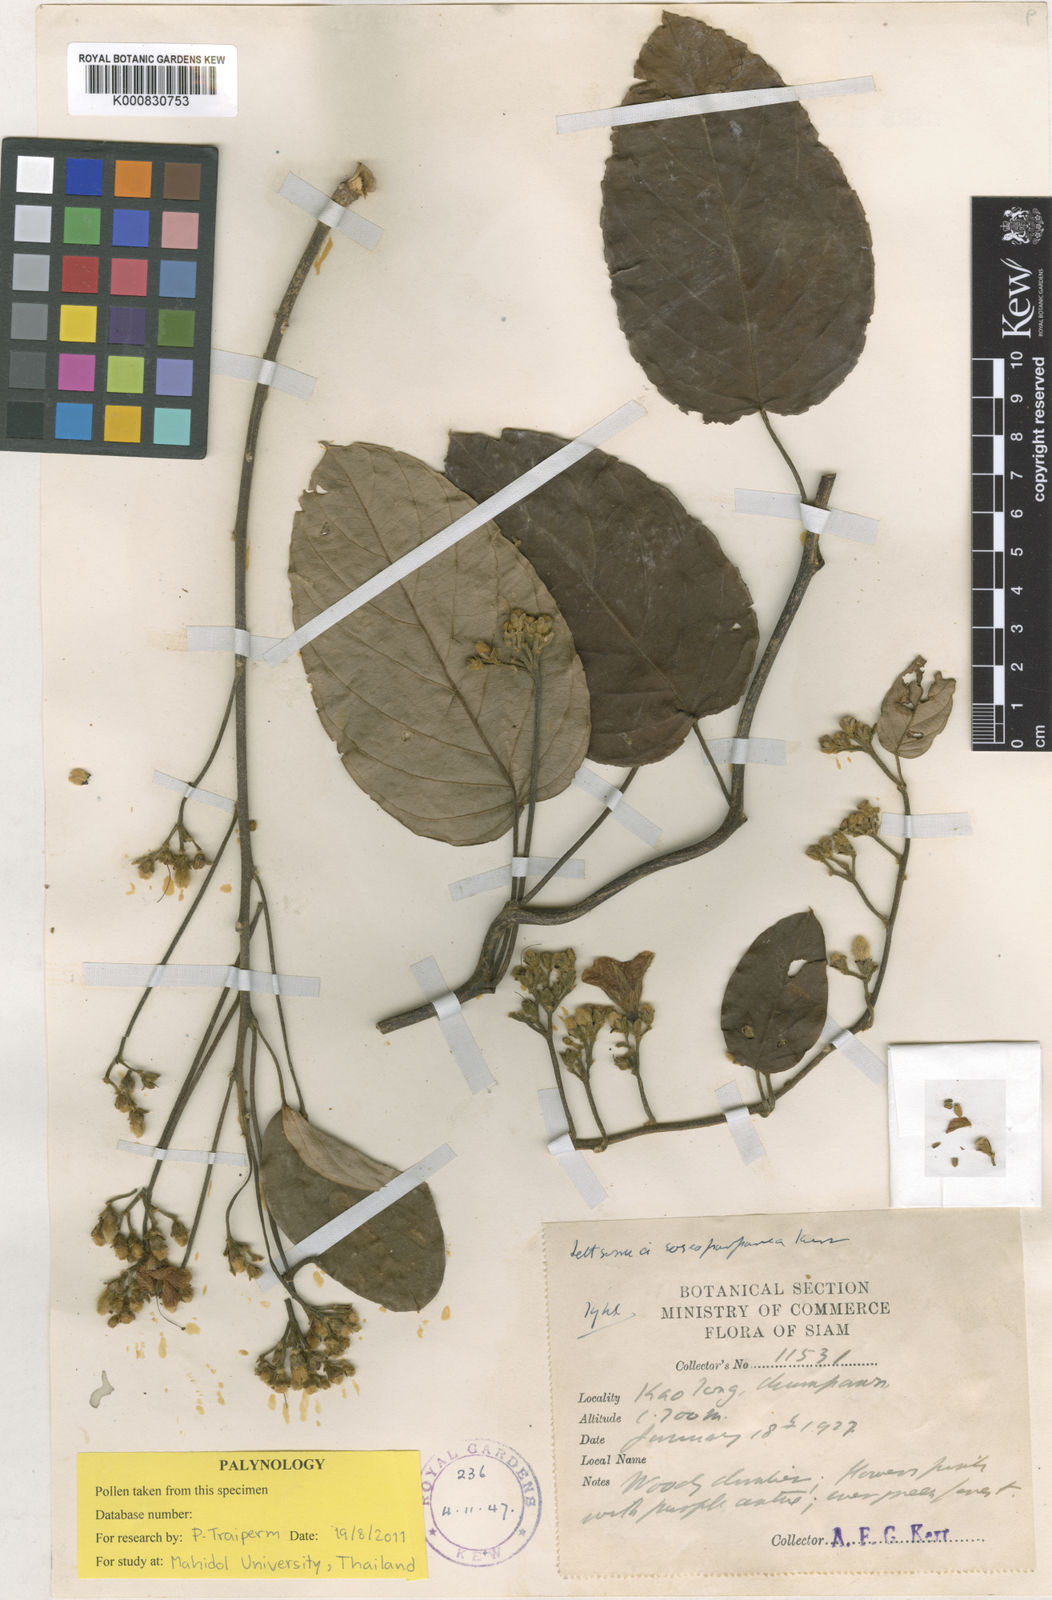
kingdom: Plantae
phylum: Tracheophyta
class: Magnoliopsida
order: Solanales
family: Convolvulaceae
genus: Argyreia
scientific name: Argyreia roseopurpurea
